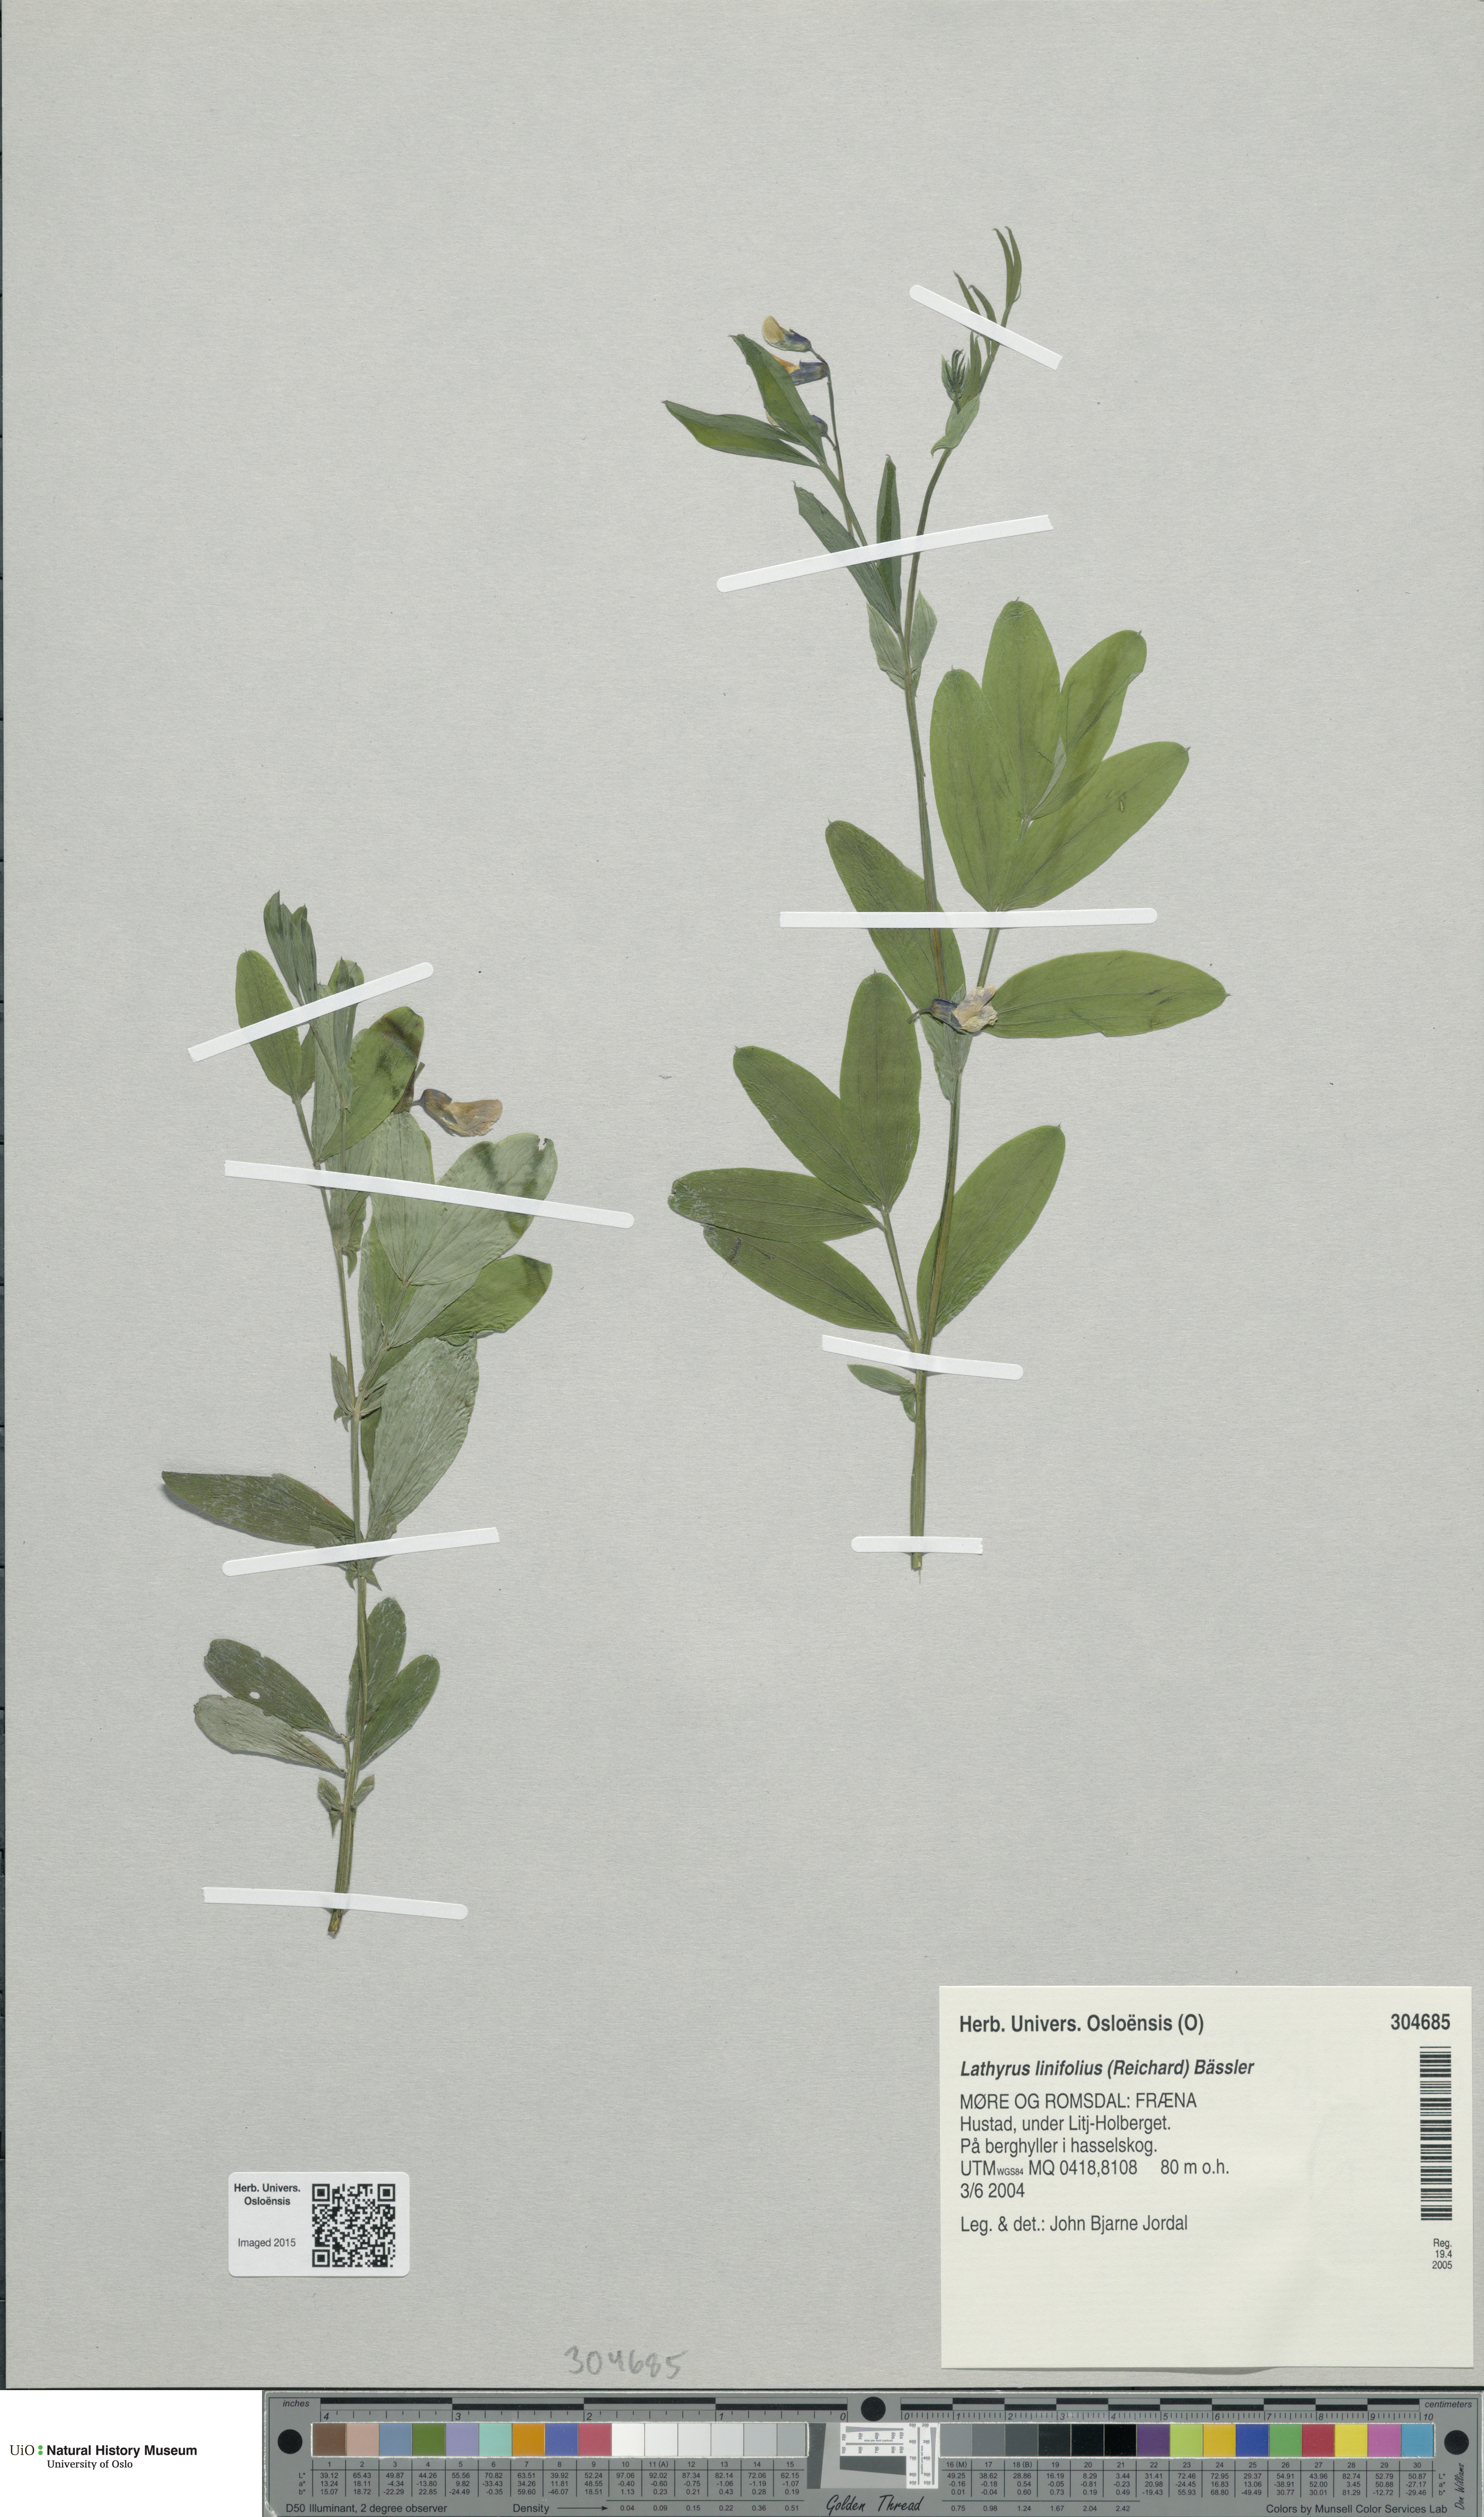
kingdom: Plantae
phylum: Tracheophyta
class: Magnoliopsida
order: Fabales
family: Fabaceae
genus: Lathyrus
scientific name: Lathyrus linifolius
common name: Bitter-vetch
